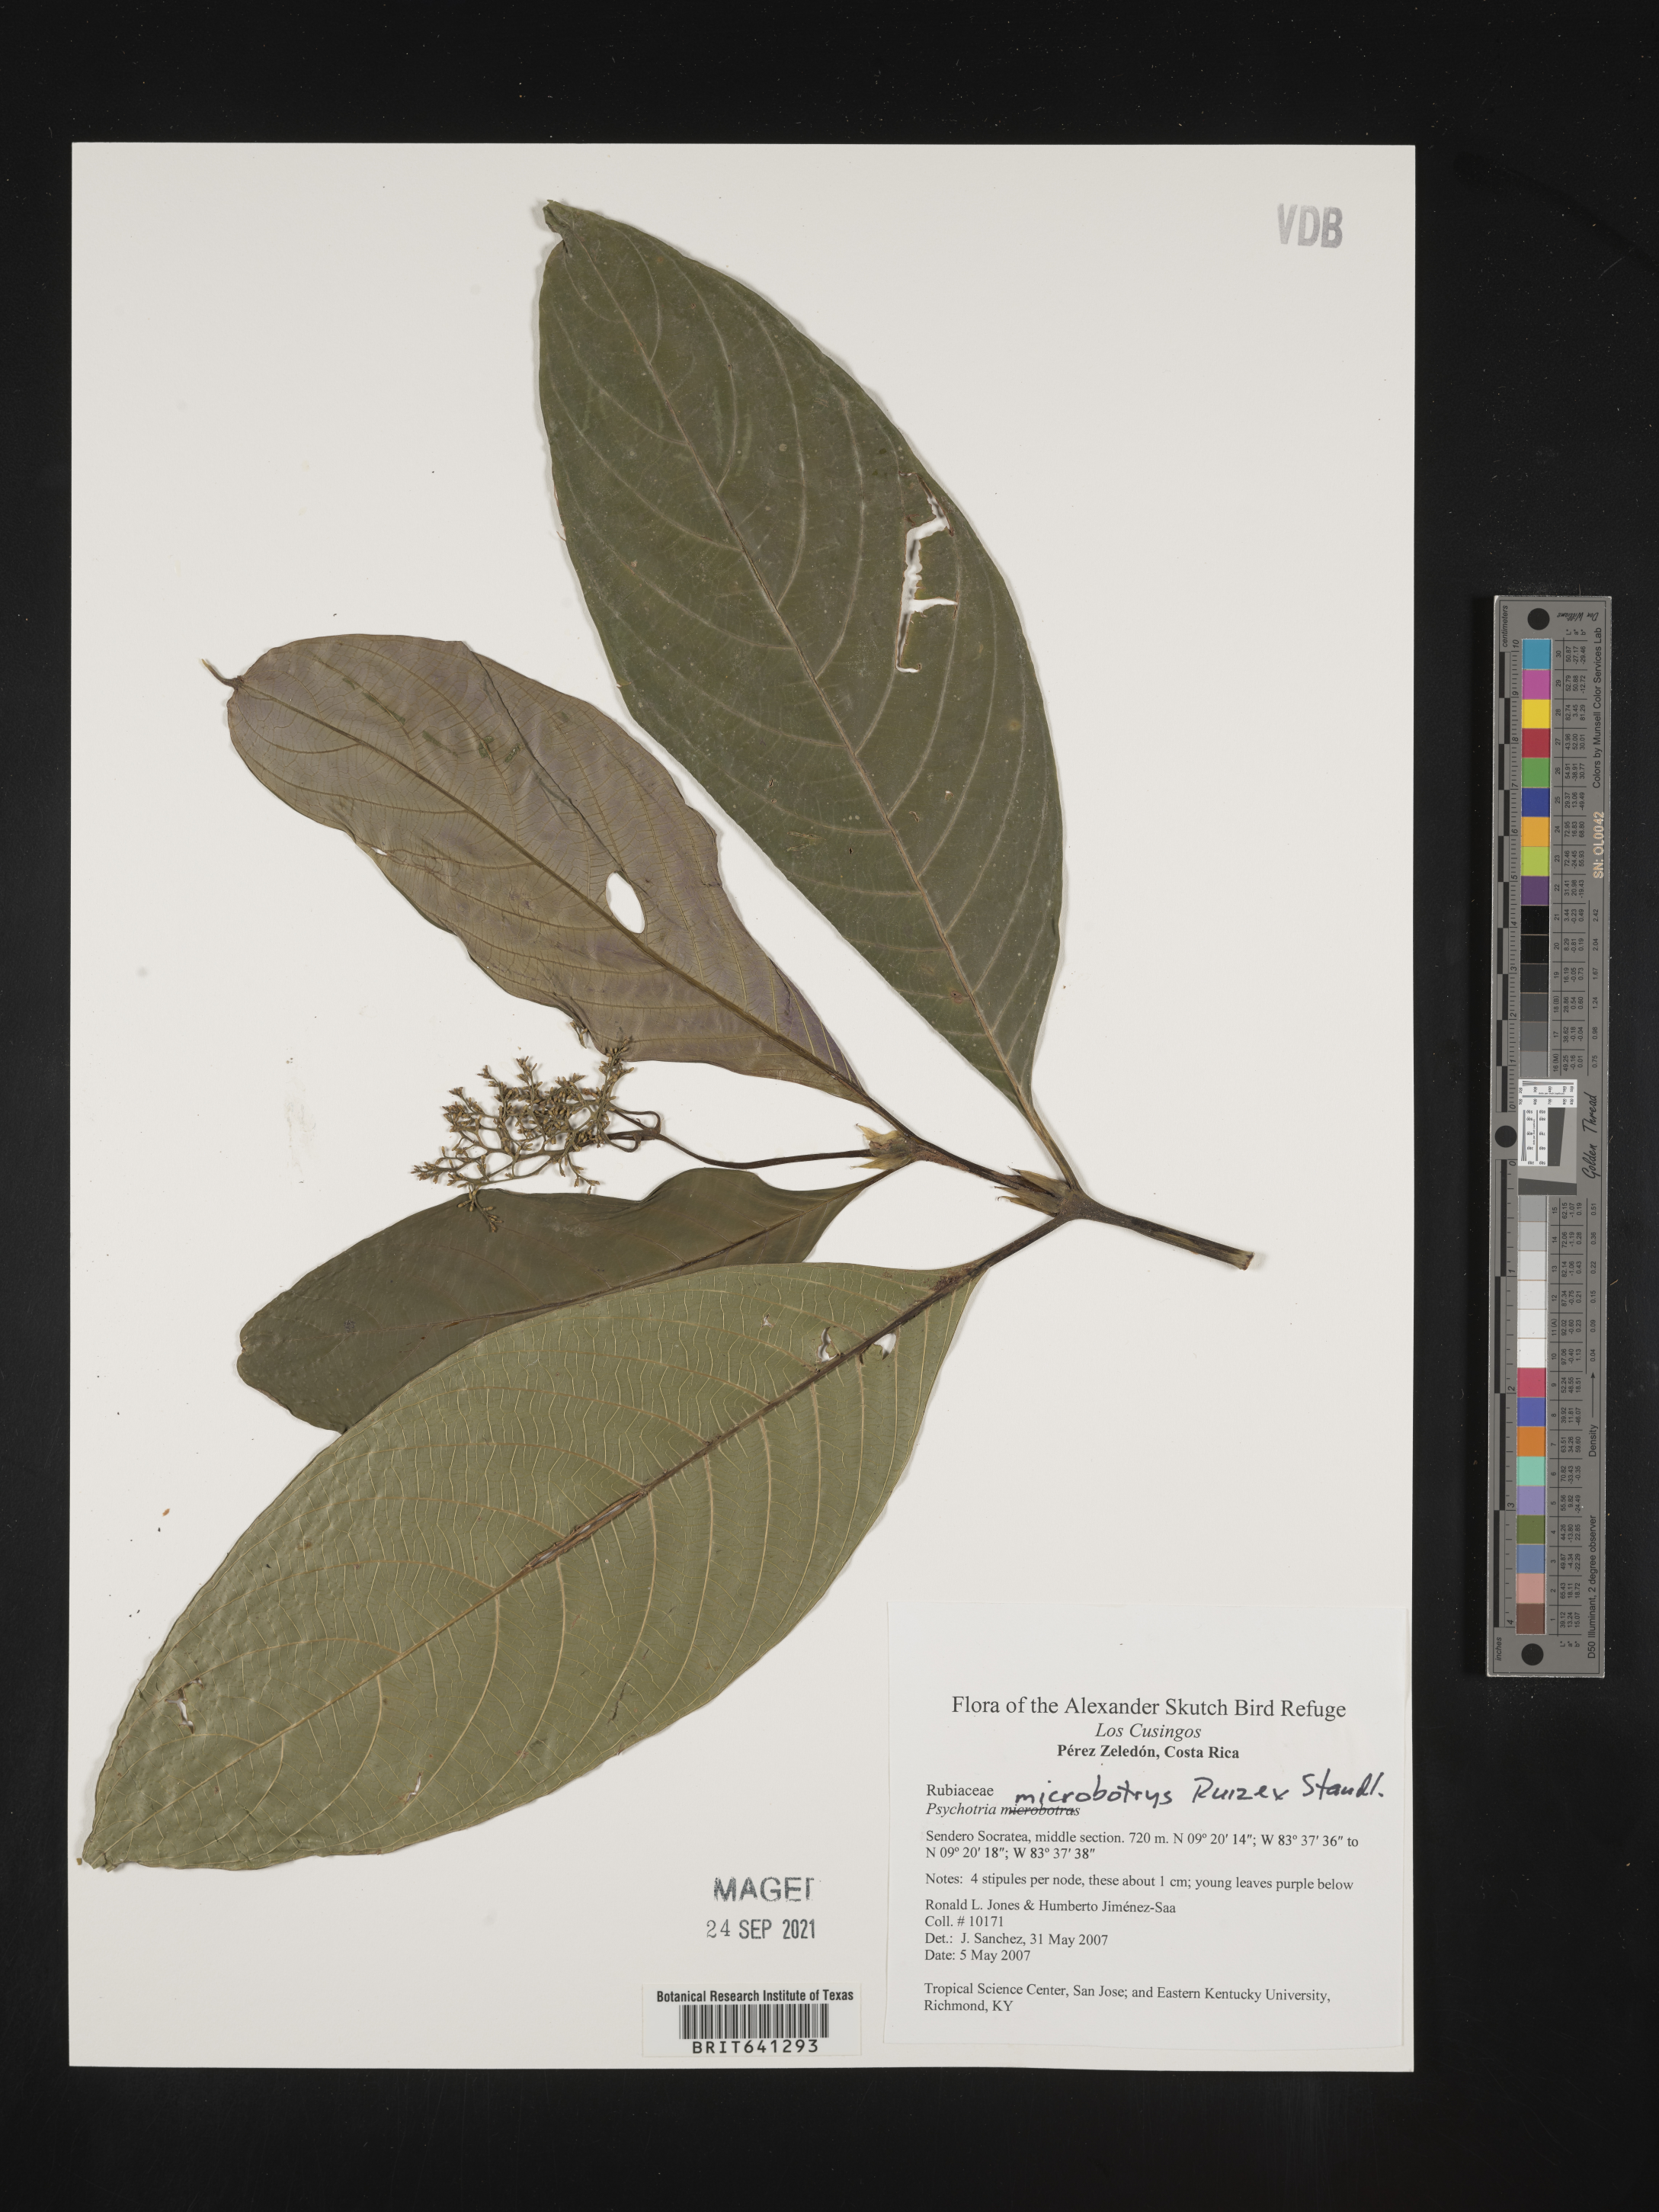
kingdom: Plantae
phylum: Tracheophyta
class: Magnoliopsida
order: Gentianales
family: Rubiaceae
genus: Psychotria
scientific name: Psychotria
